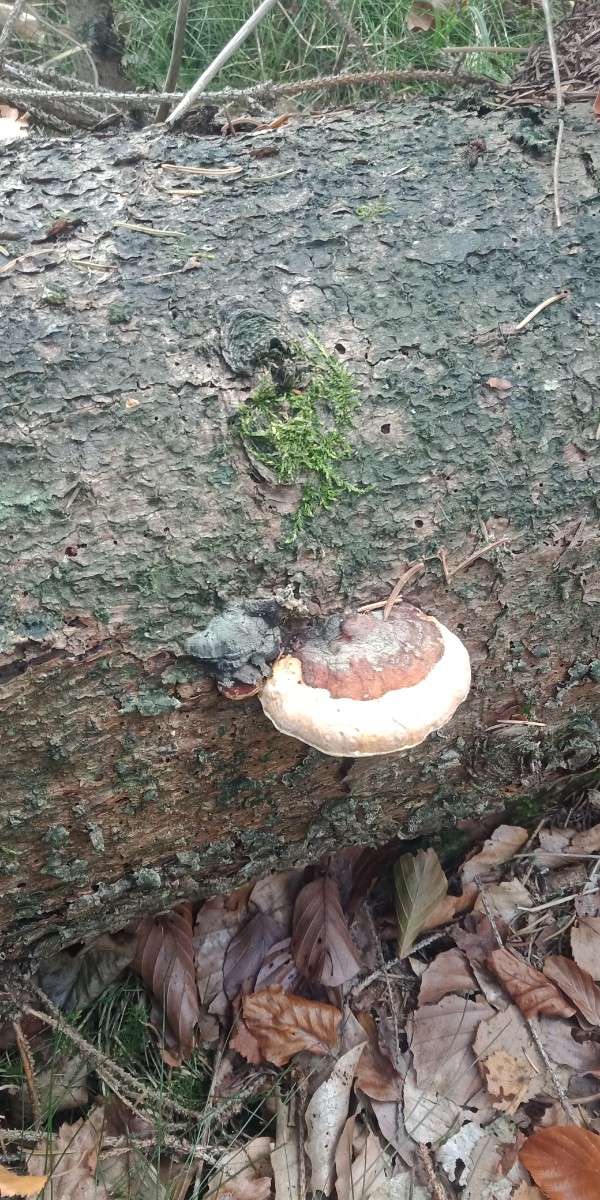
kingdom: Fungi
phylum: Basidiomycota
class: Agaricomycetes
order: Polyporales
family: Fomitopsidaceae
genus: Fomitopsis
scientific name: Fomitopsis pinicola
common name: randbæltet hovporesvamp
